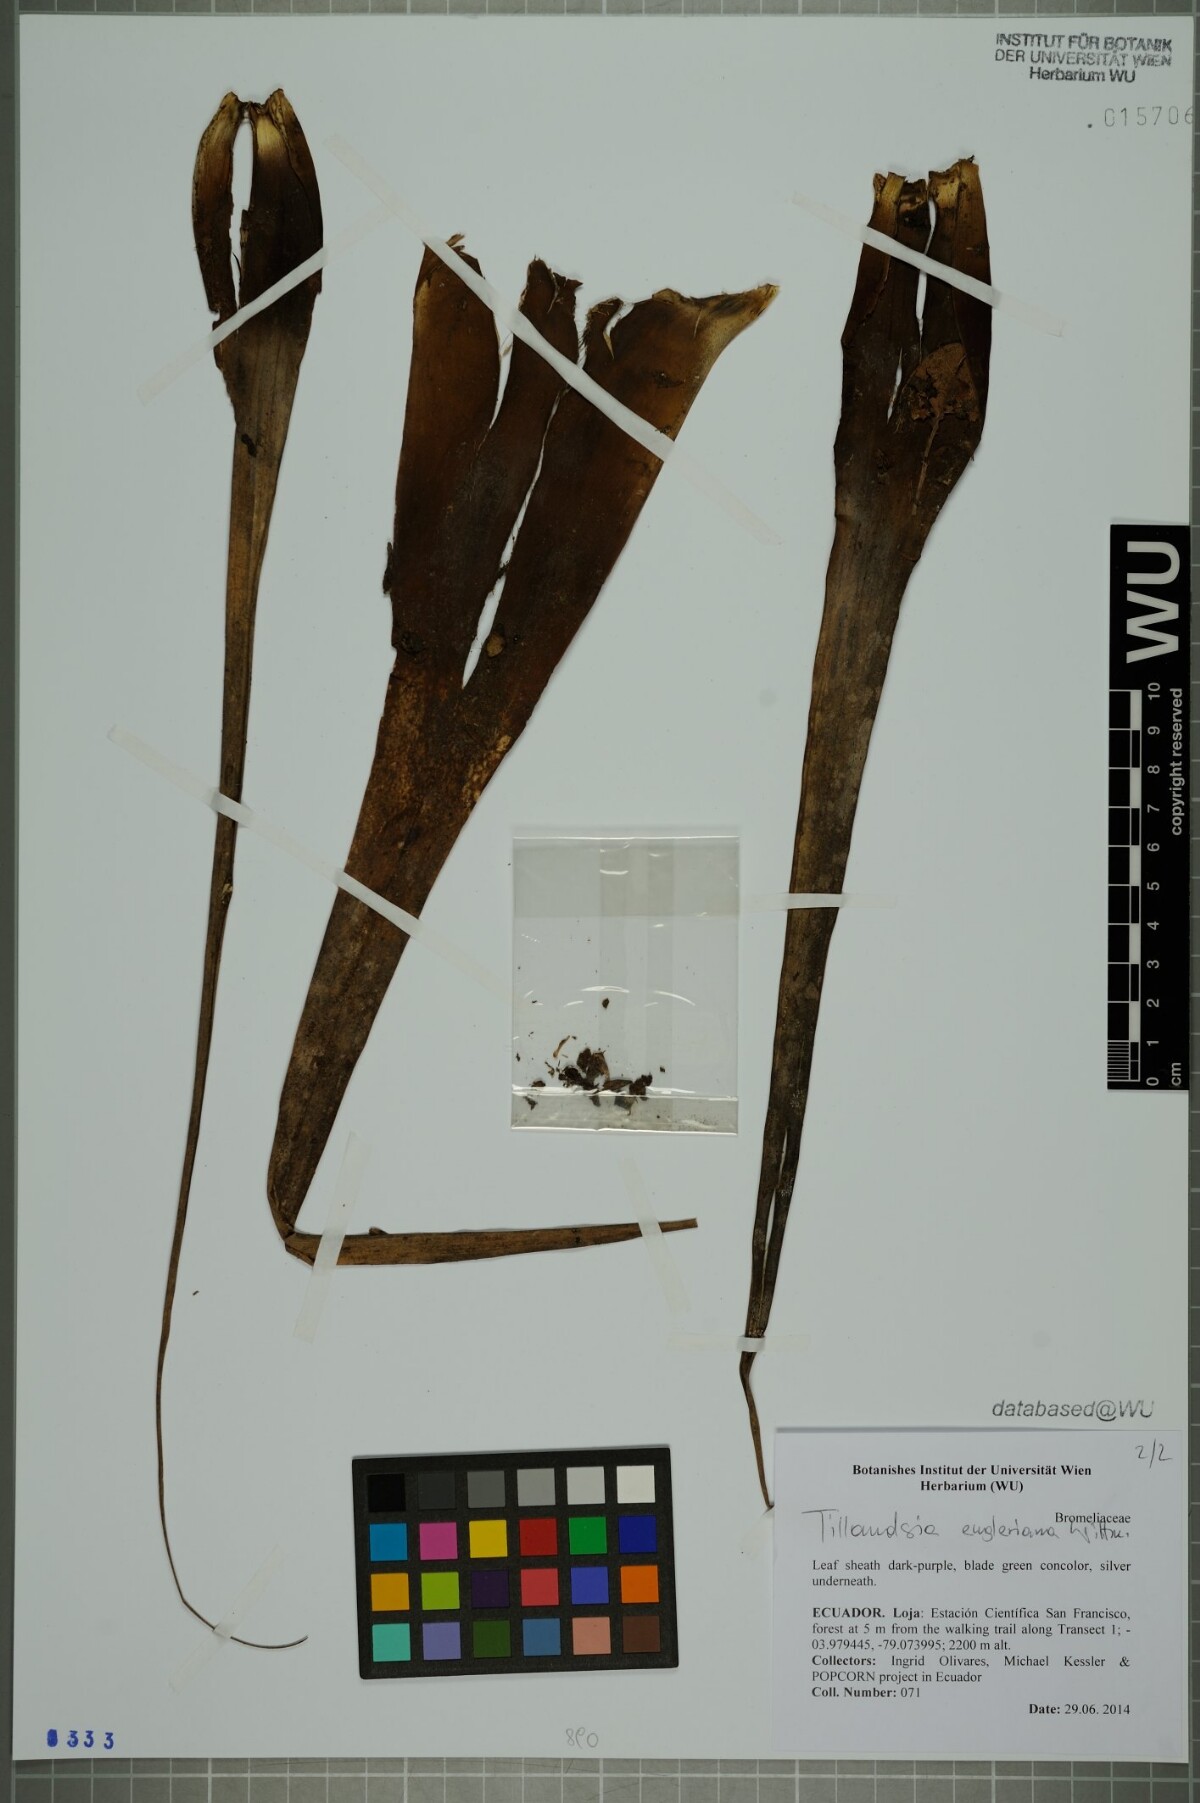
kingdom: Plantae
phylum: Tracheophyta
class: Liliopsida
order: Poales
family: Bromeliaceae
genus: Tillandsia
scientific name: Tillandsia engleriana
